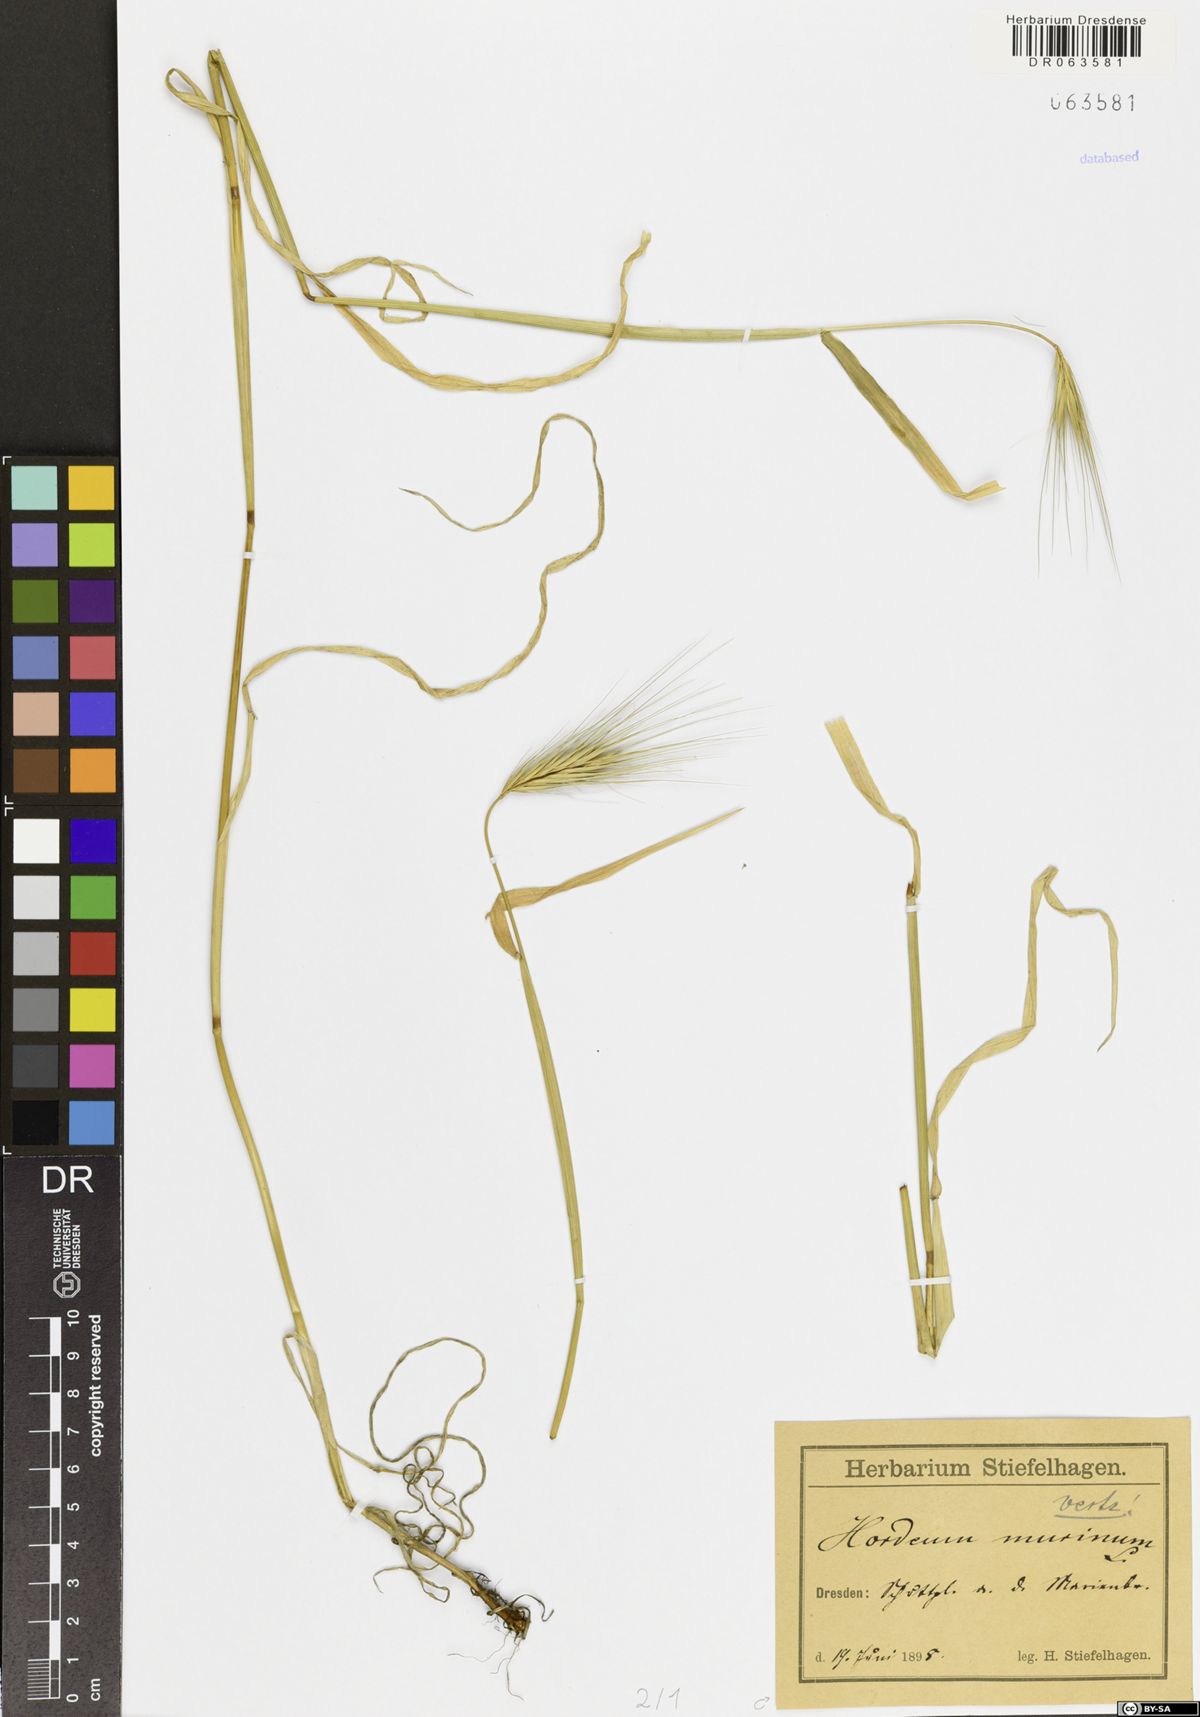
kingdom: Plantae
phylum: Tracheophyta
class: Liliopsida
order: Poales
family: Poaceae
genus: Hordeum
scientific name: Hordeum murinum
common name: Wall barley
